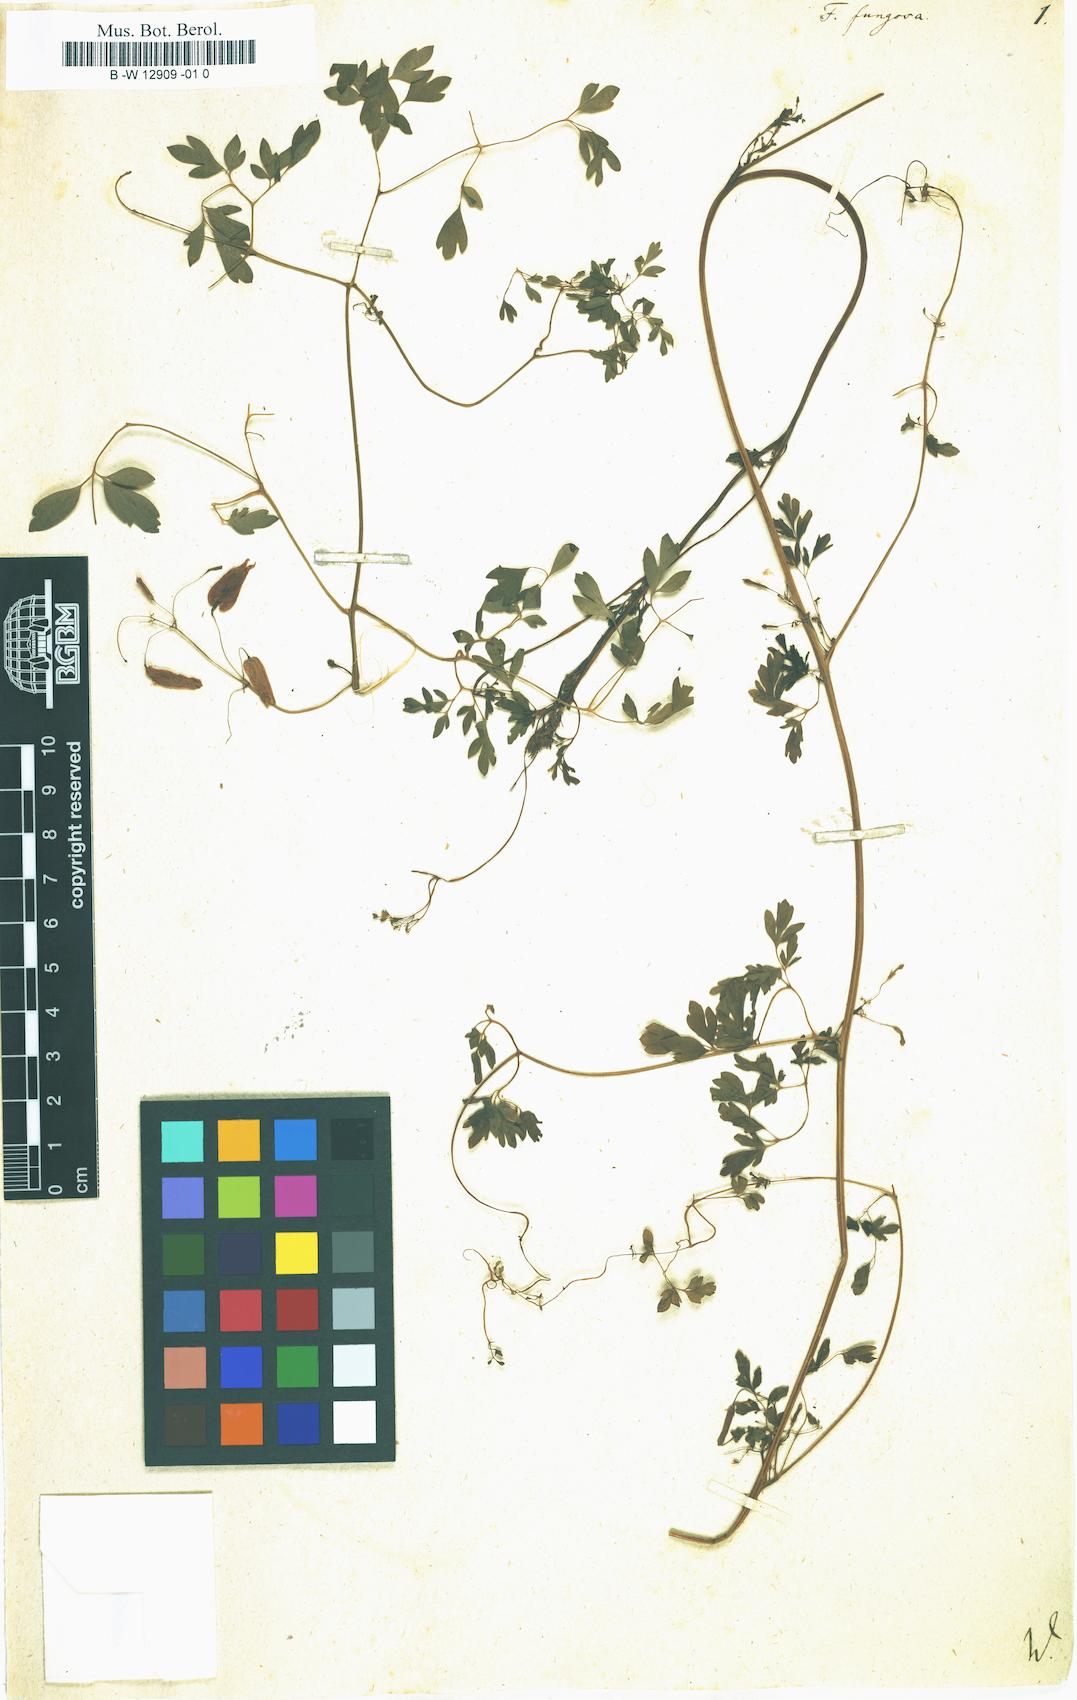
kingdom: Plantae
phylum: Tracheophyta
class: Magnoliopsida
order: Ranunculales
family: Papaveraceae
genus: Adlumia
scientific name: Adlumia fungosa
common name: Mountain-fringe
